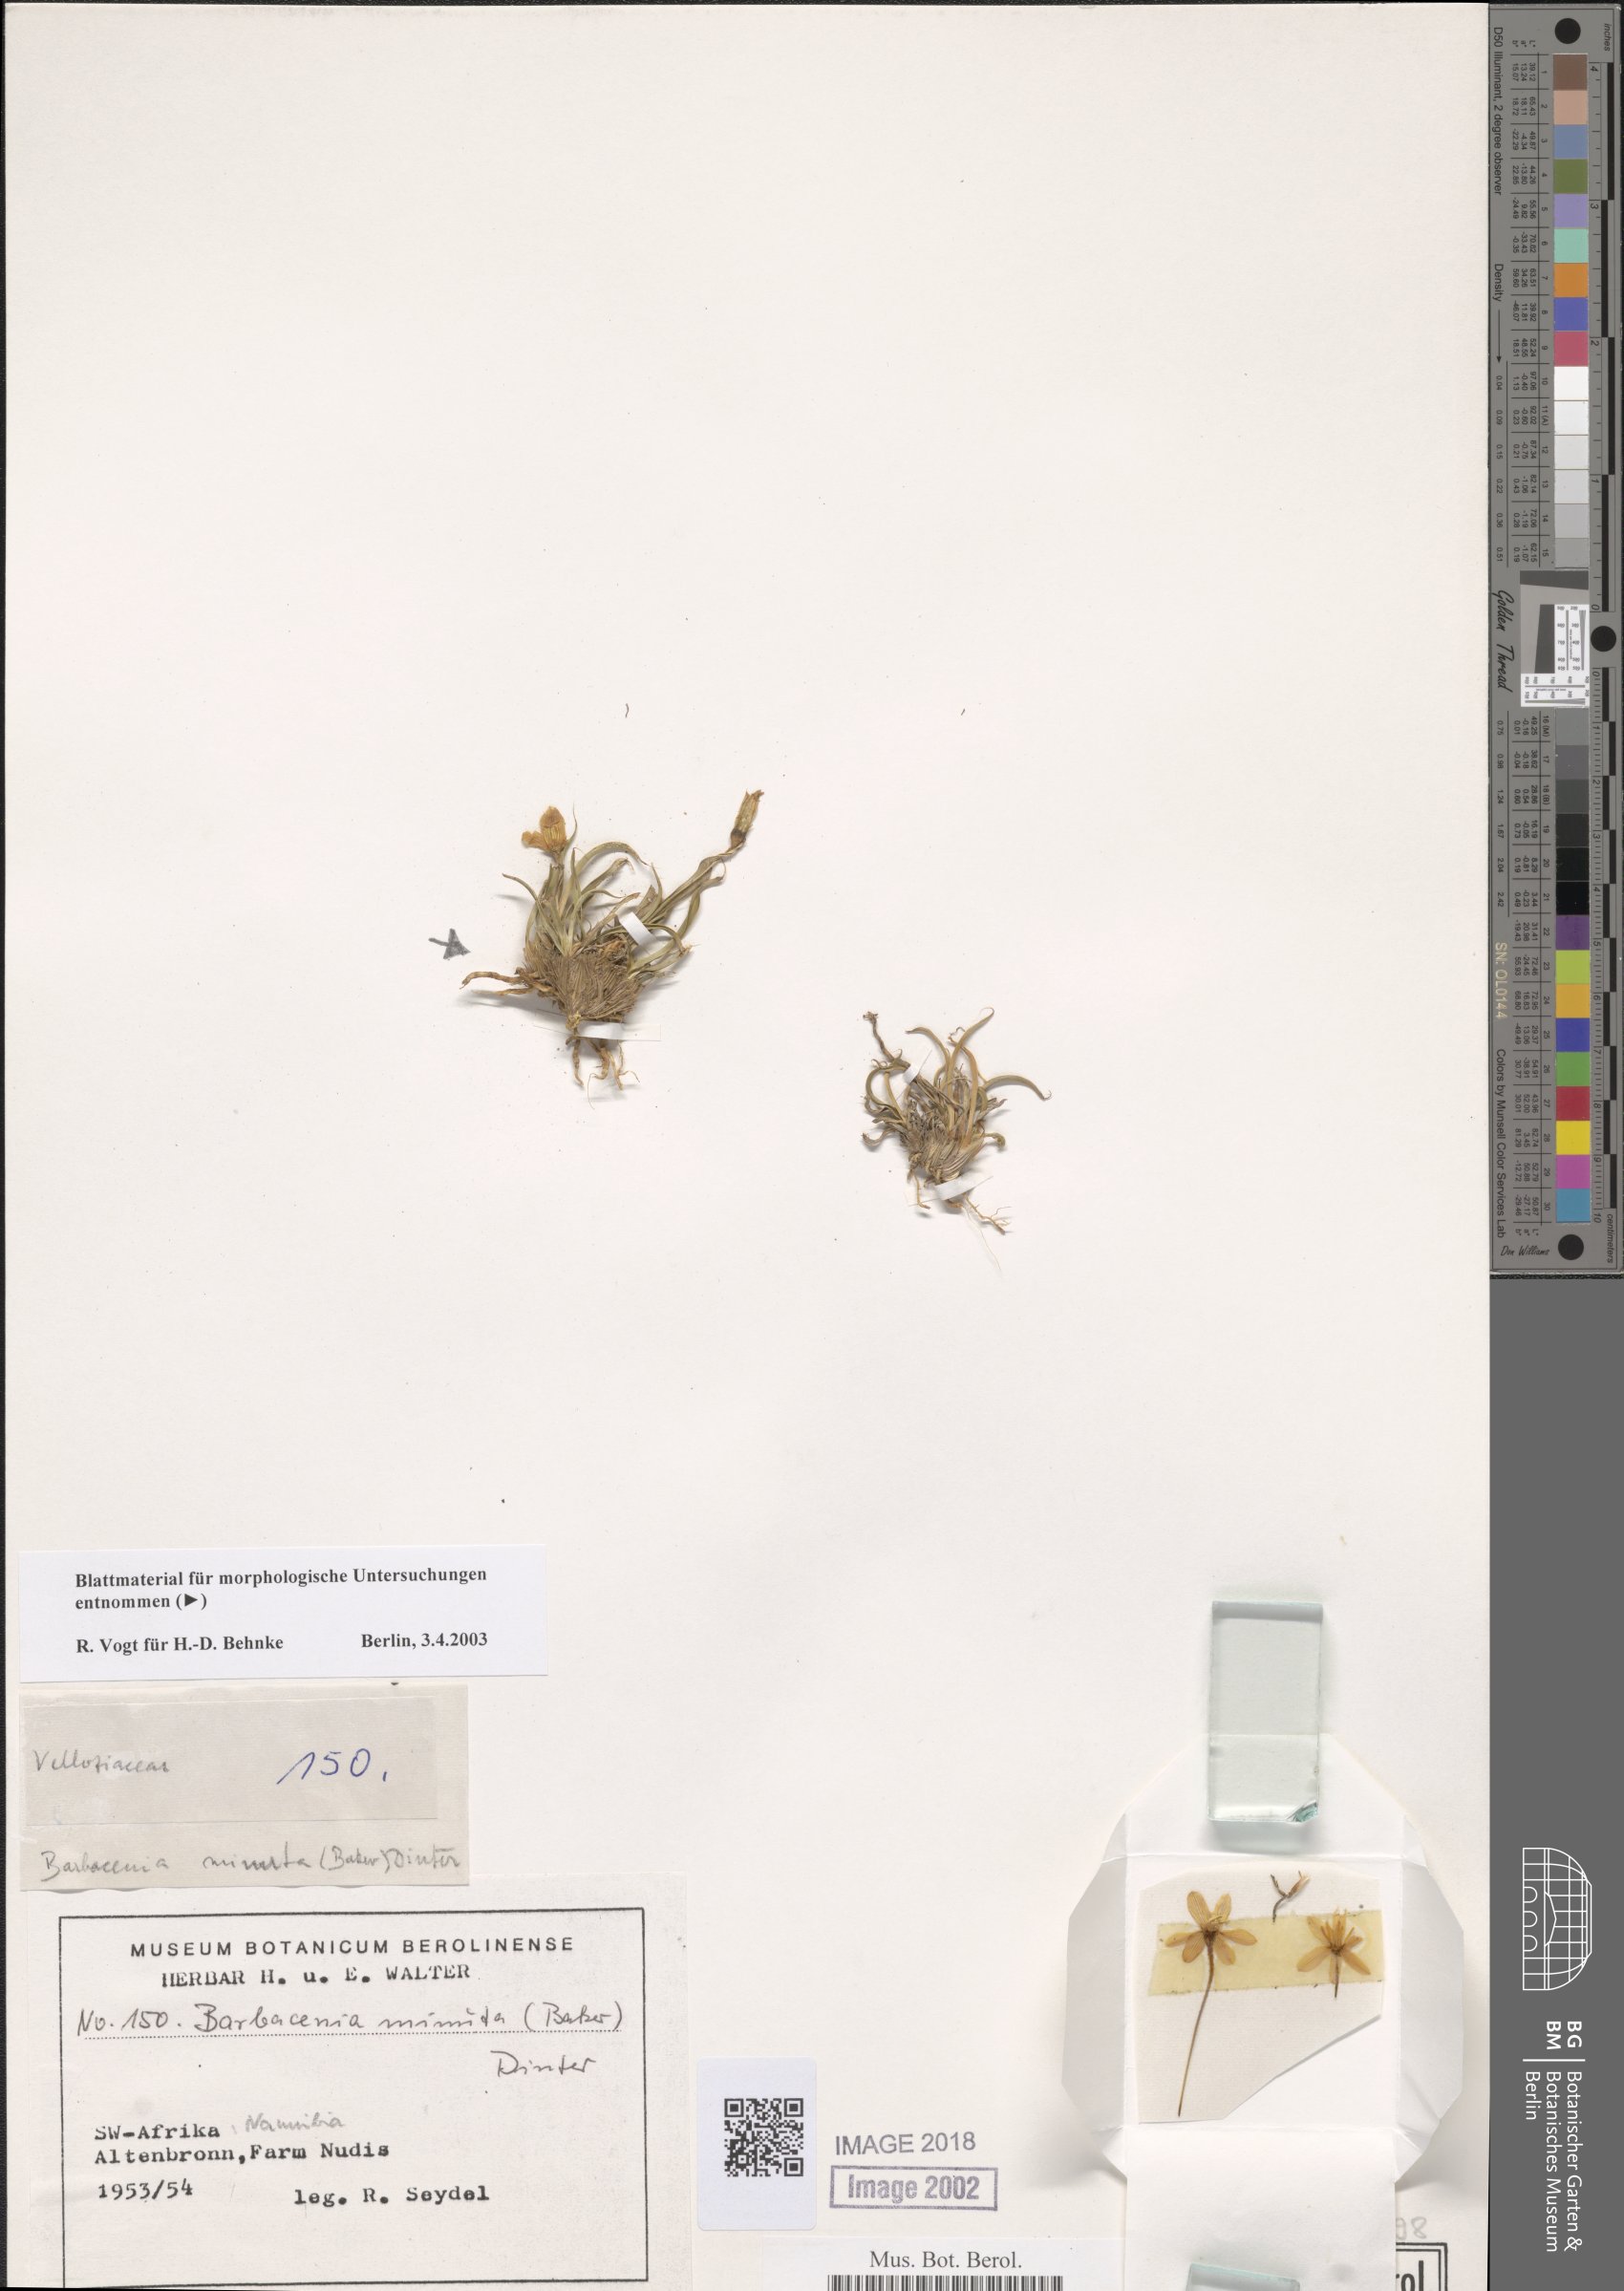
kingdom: Plantae
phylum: Tracheophyta
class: Liliopsida
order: Pandanales
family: Velloziaceae
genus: Xerophyta
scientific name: Xerophyta elegans
